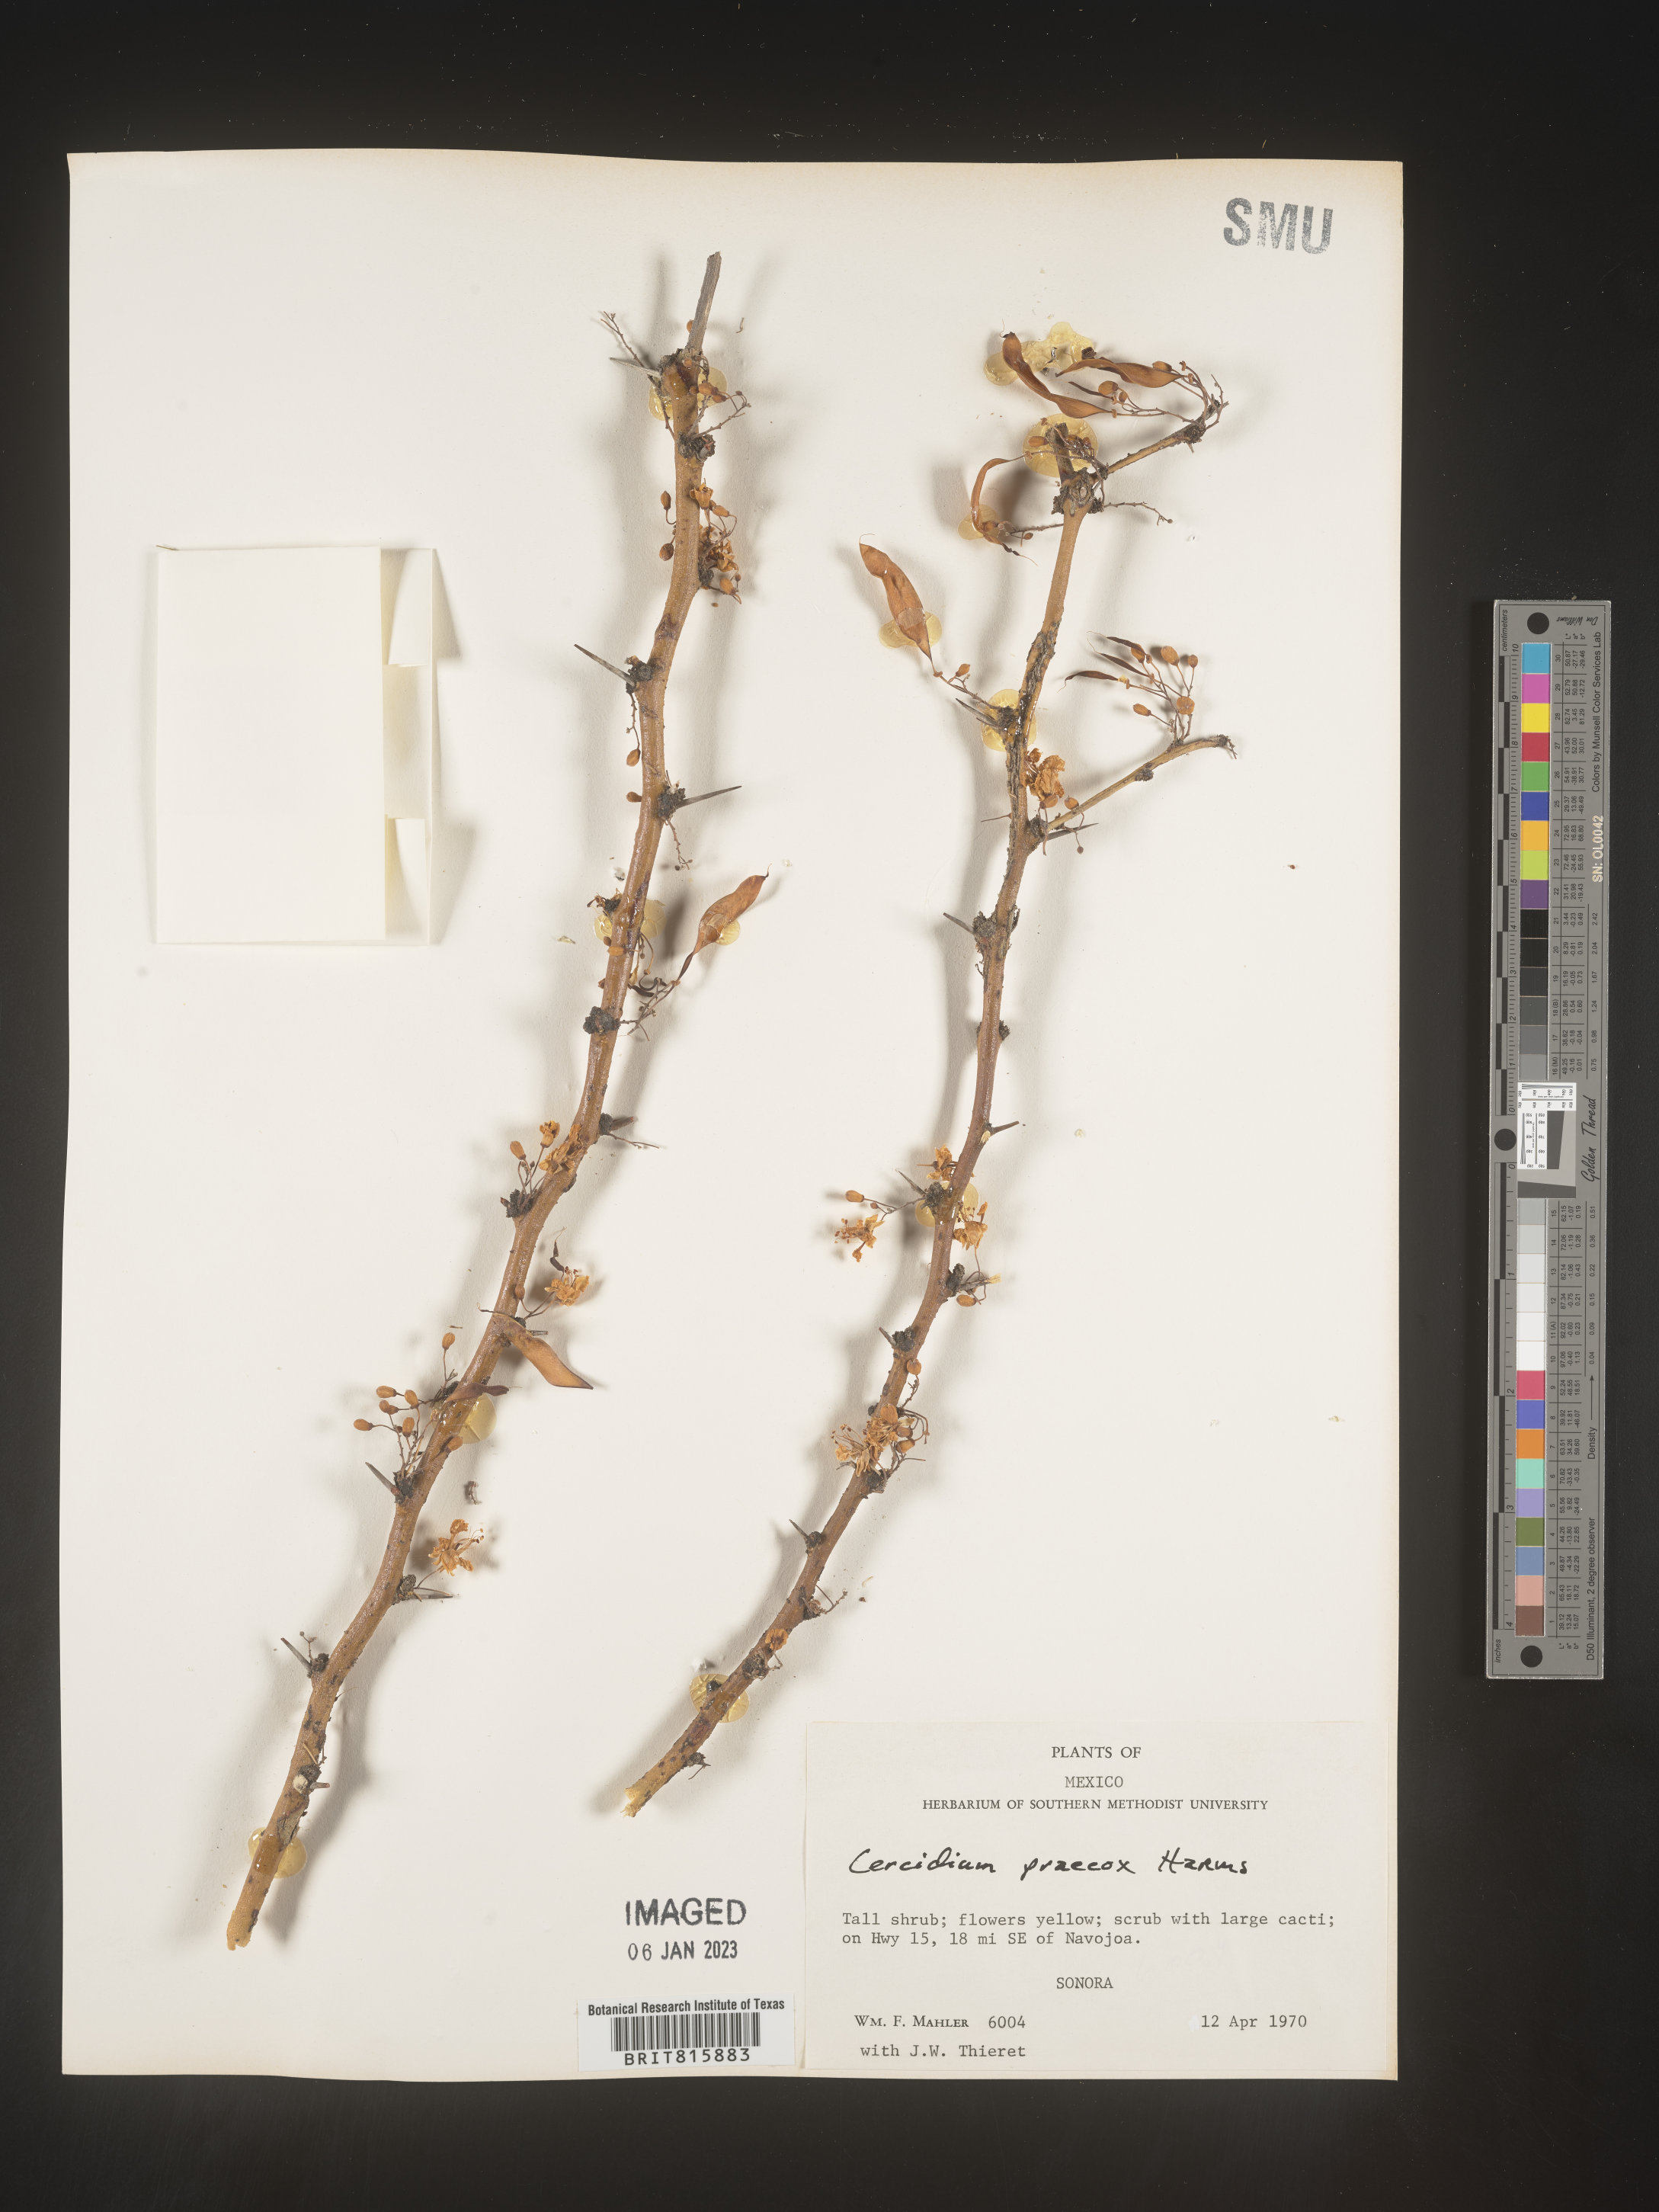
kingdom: Plantae
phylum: Chlorophyta
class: Chlorophyceae
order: Volvocales
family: Chlamydomonadaceae
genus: Cercidium
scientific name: Cercidium
